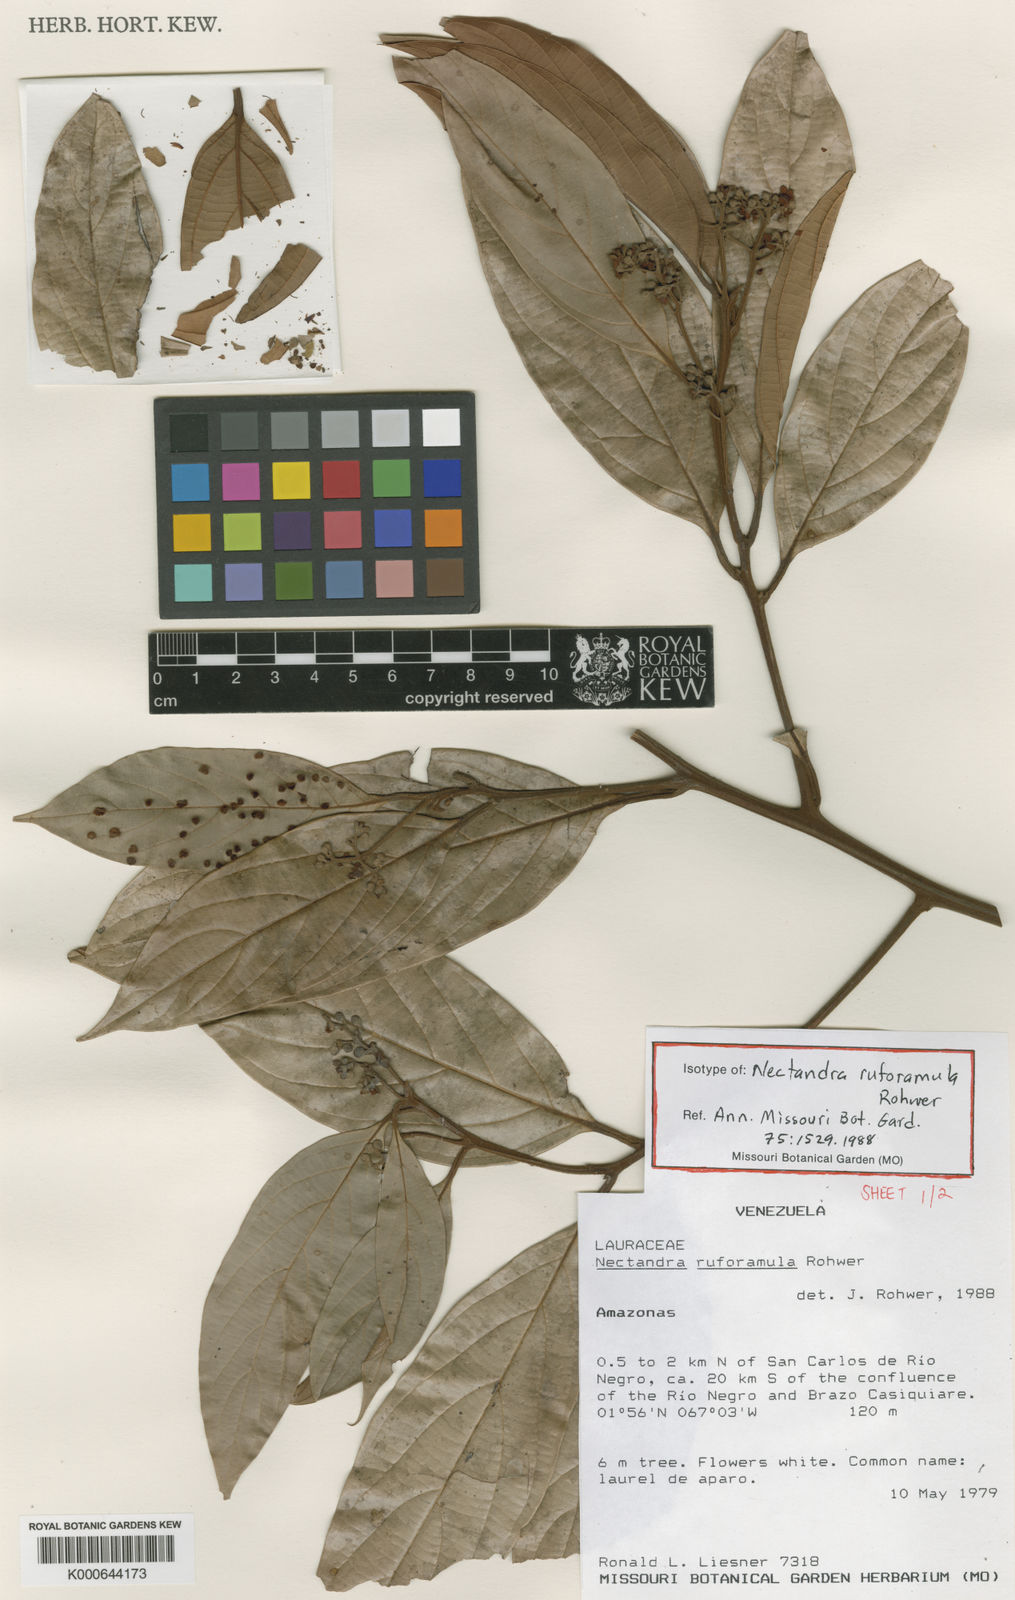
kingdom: Plantae
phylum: Tracheophyta
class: Magnoliopsida
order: Laurales
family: Lauraceae
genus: Nectandra
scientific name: Nectandra ruforamula
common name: Rustytwig nectandra
